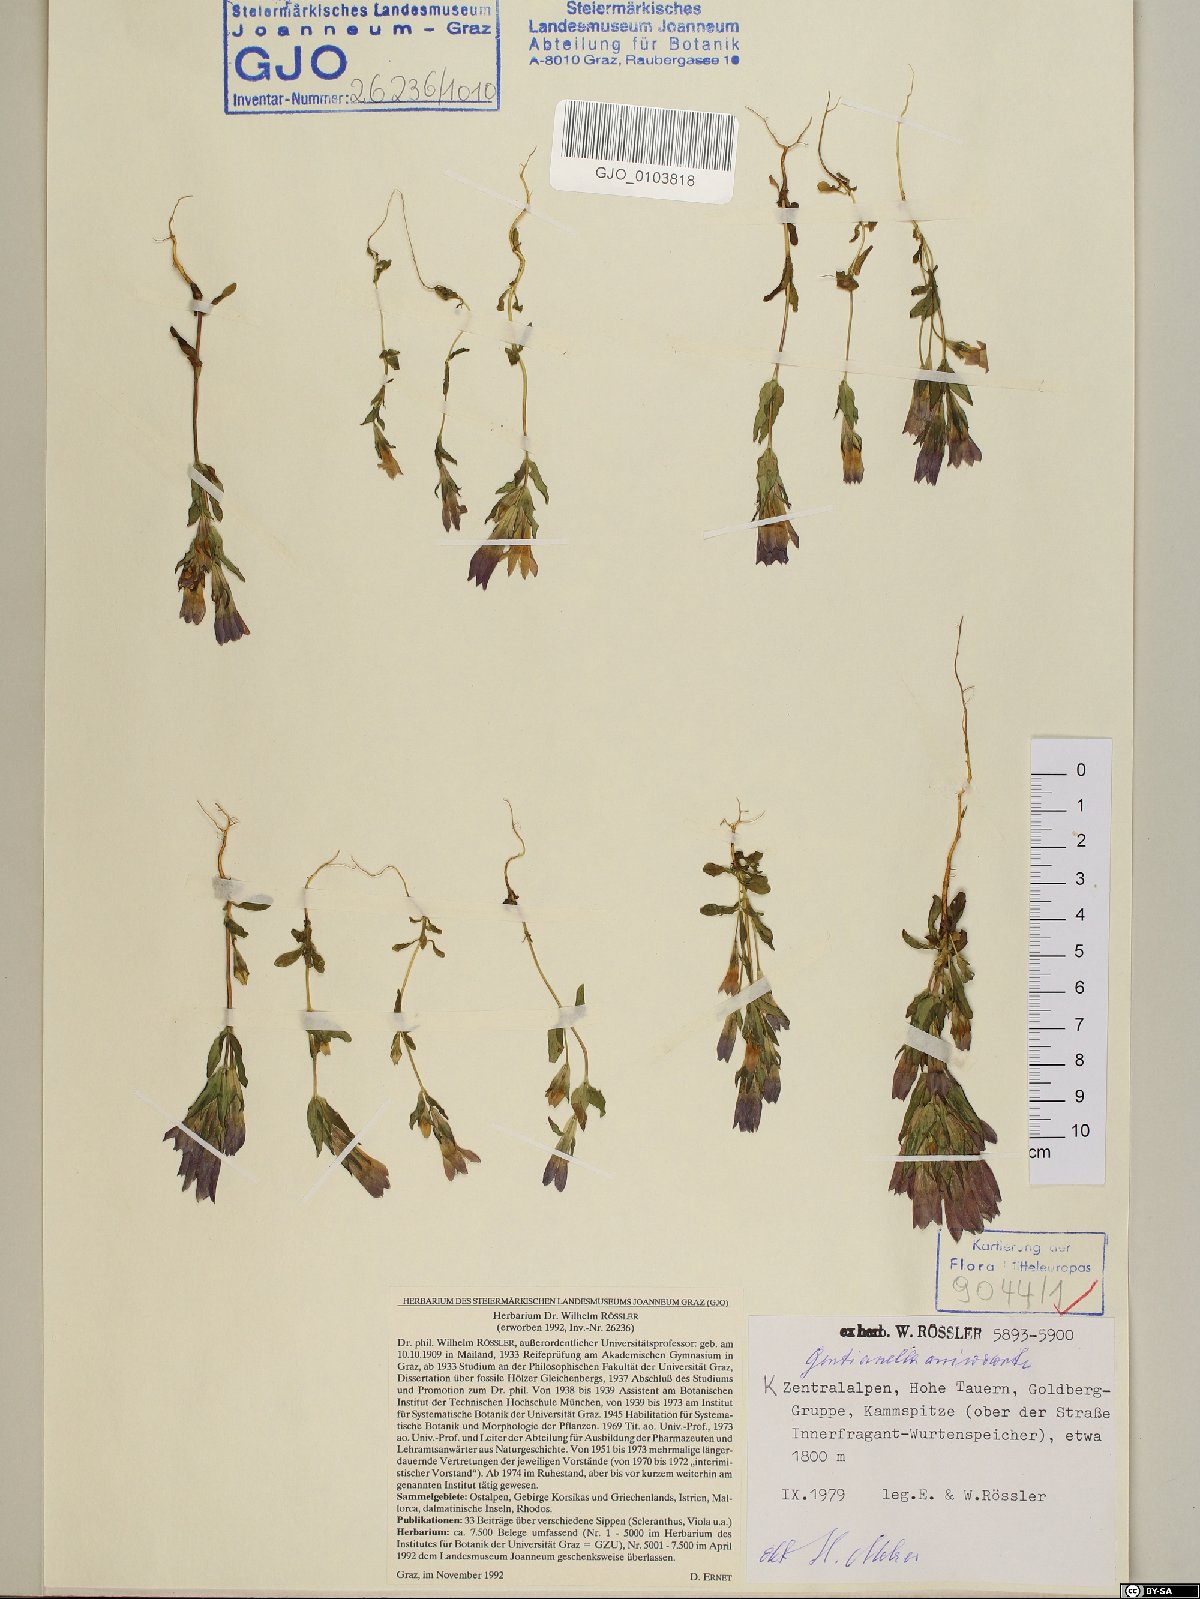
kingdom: Plantae
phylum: Tracheophyta
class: Magnoliopsida
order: Gentianales
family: Gentianaceae
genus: Gentianella
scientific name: Gentianella anisodonta
